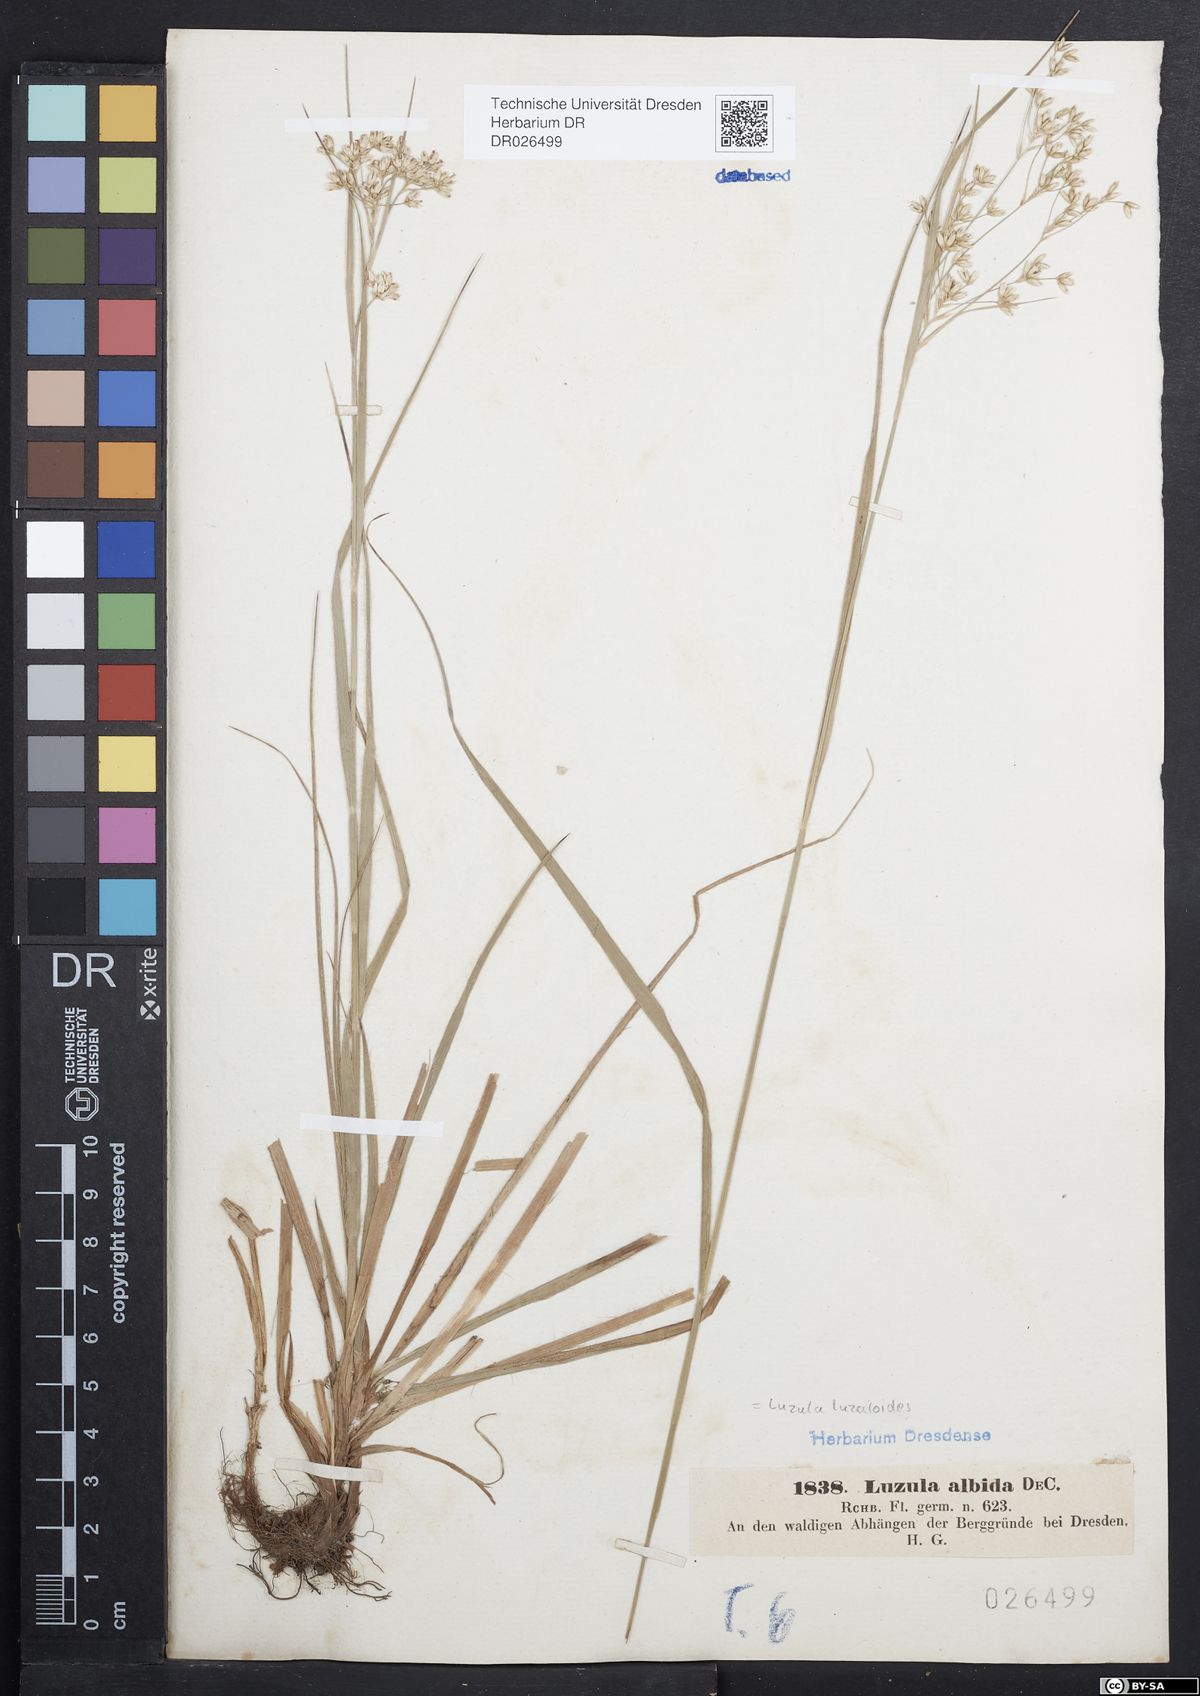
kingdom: Plantae
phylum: Tracheophyta
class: Liliopsida
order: Poales
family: Juncaceae
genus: Luzula
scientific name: Luzula luzuloides
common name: White wood-rush
